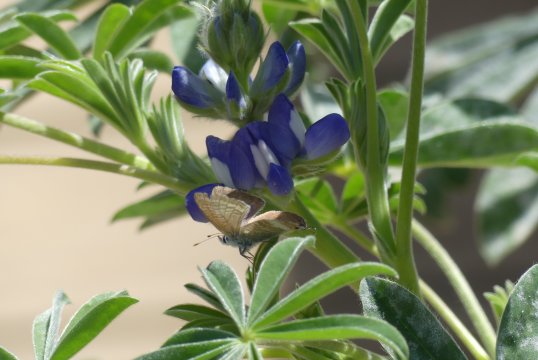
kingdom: Animalia
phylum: Arthropoda
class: Insecta
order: Lepidoptera
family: Lycaenidae
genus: Lampides
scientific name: Lampides boeticus
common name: Pea Blue
